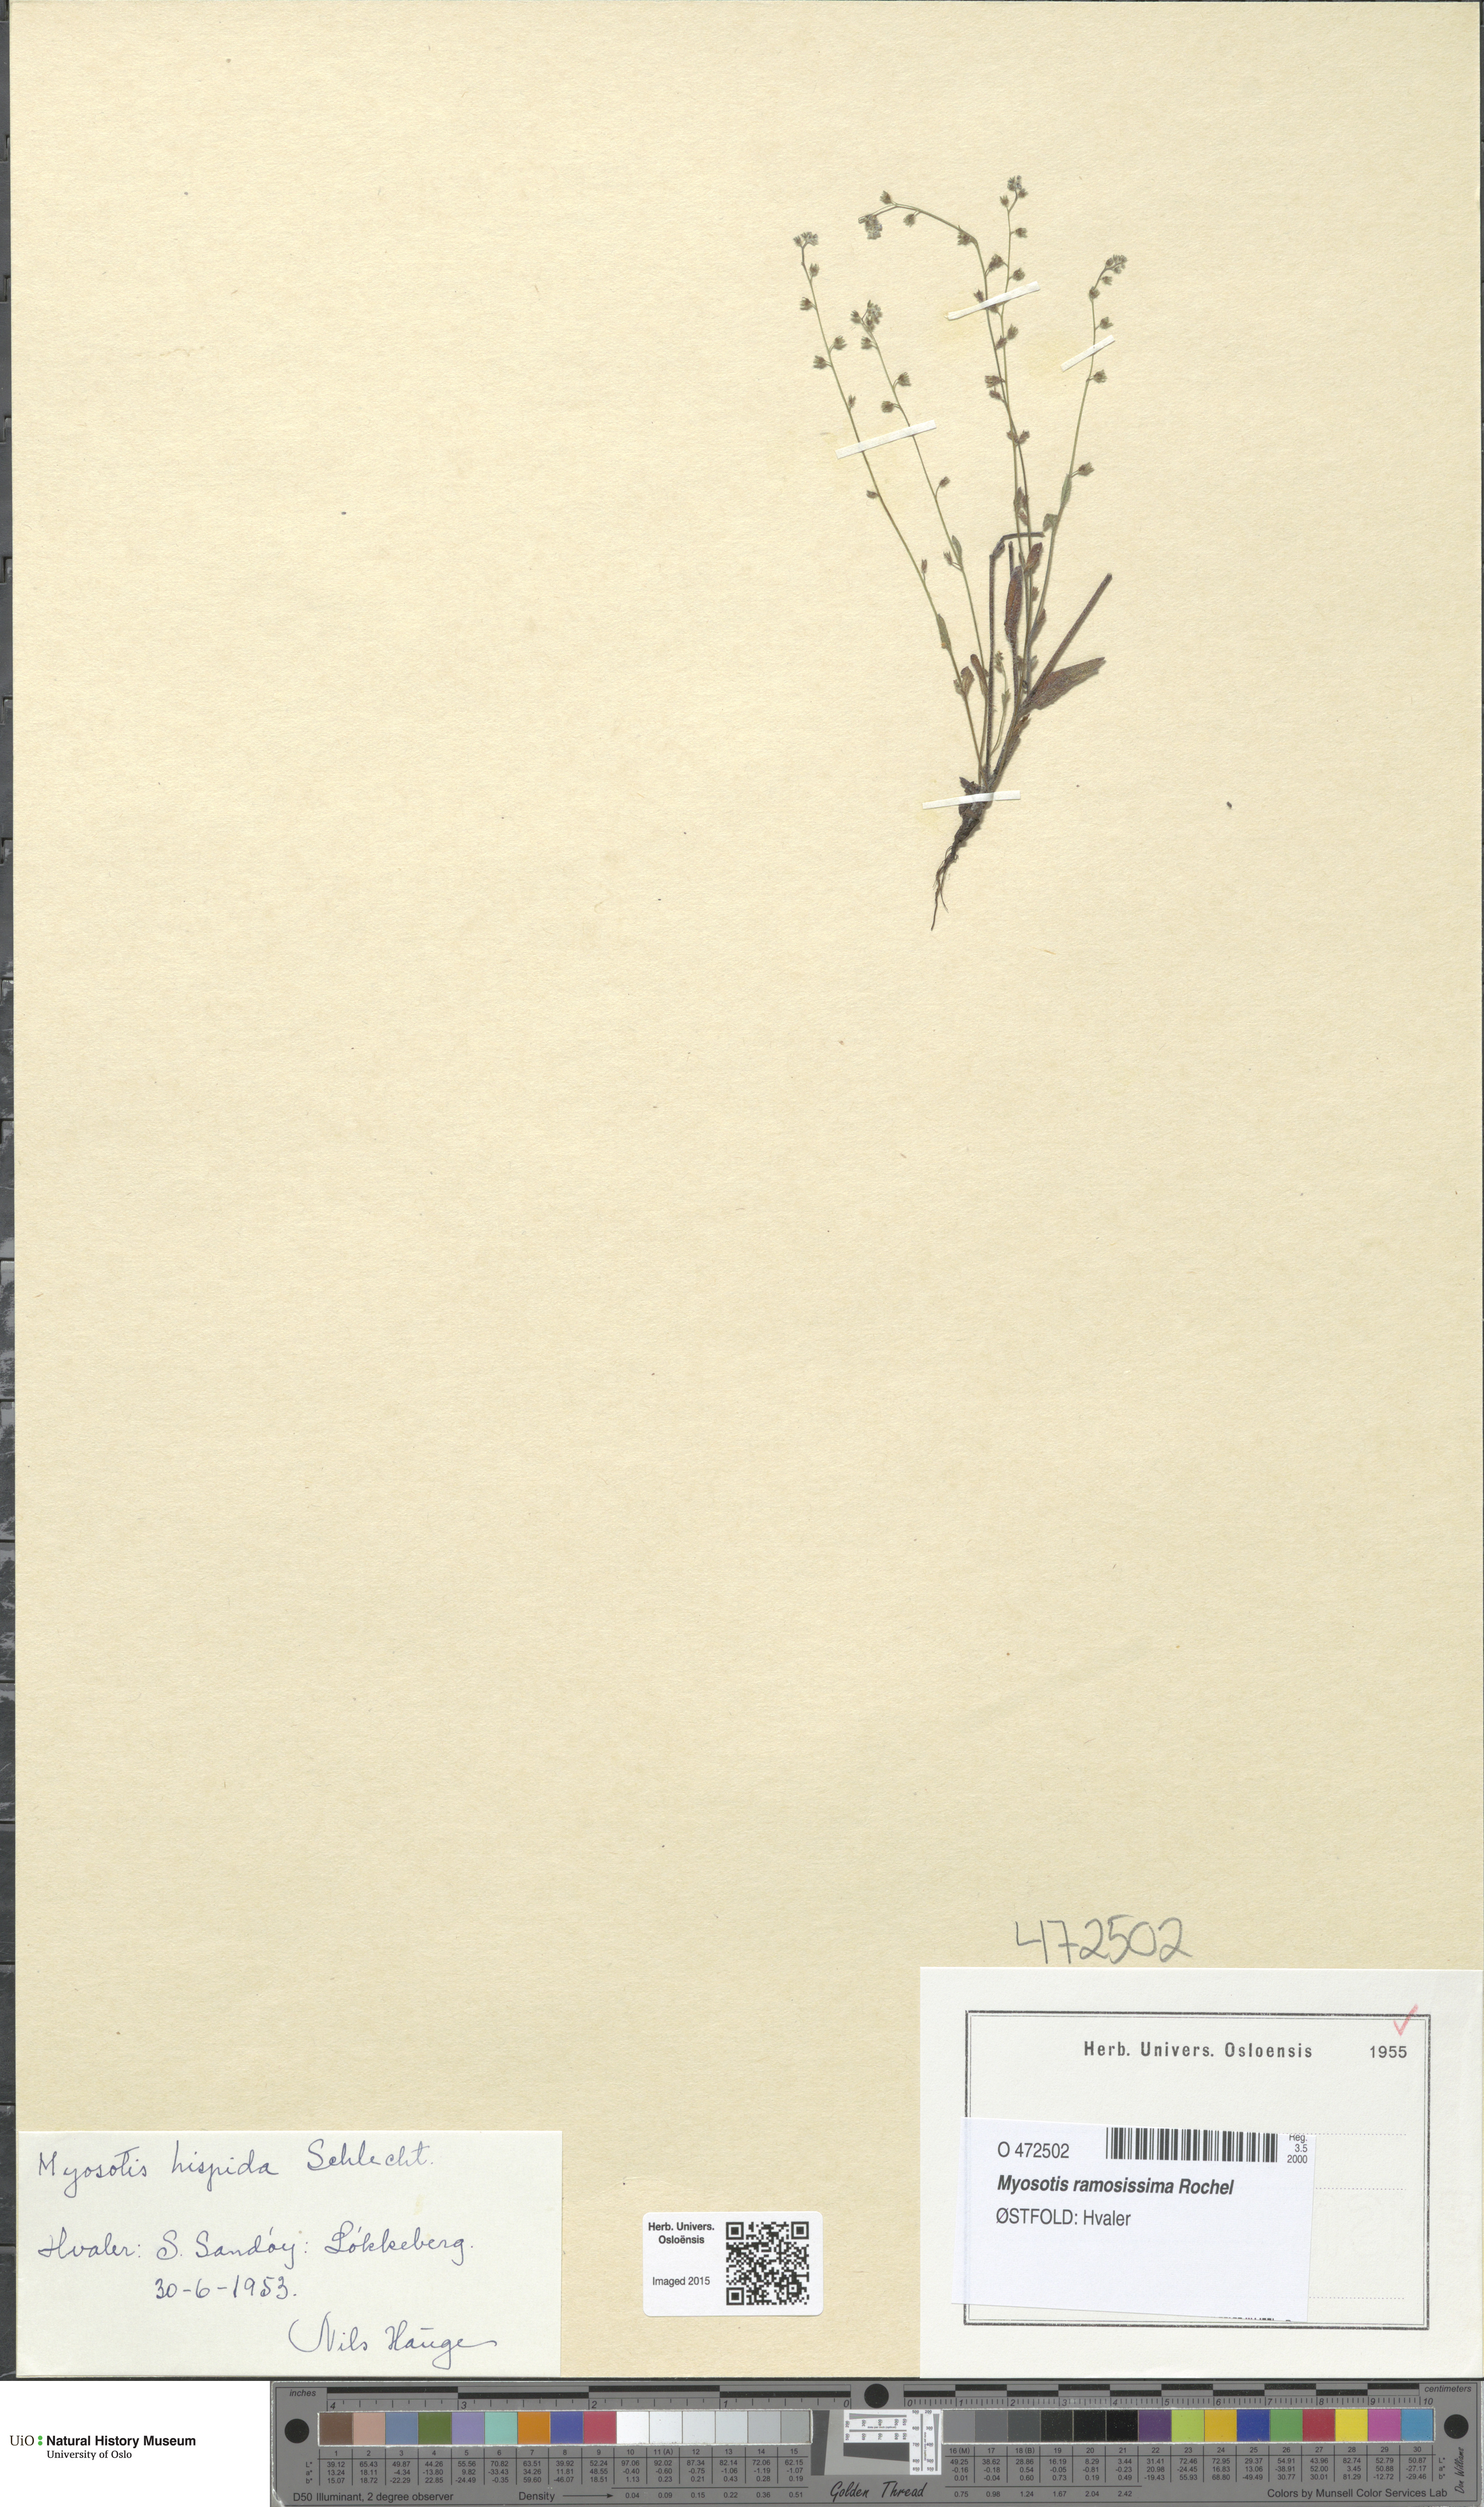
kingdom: Plantae
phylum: Tracheophyta
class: Magnoliopsida
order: Boraginales
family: Boraginaceae
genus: Myosotis
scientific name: Myosotis ramosissima
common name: Early forget-me-not
